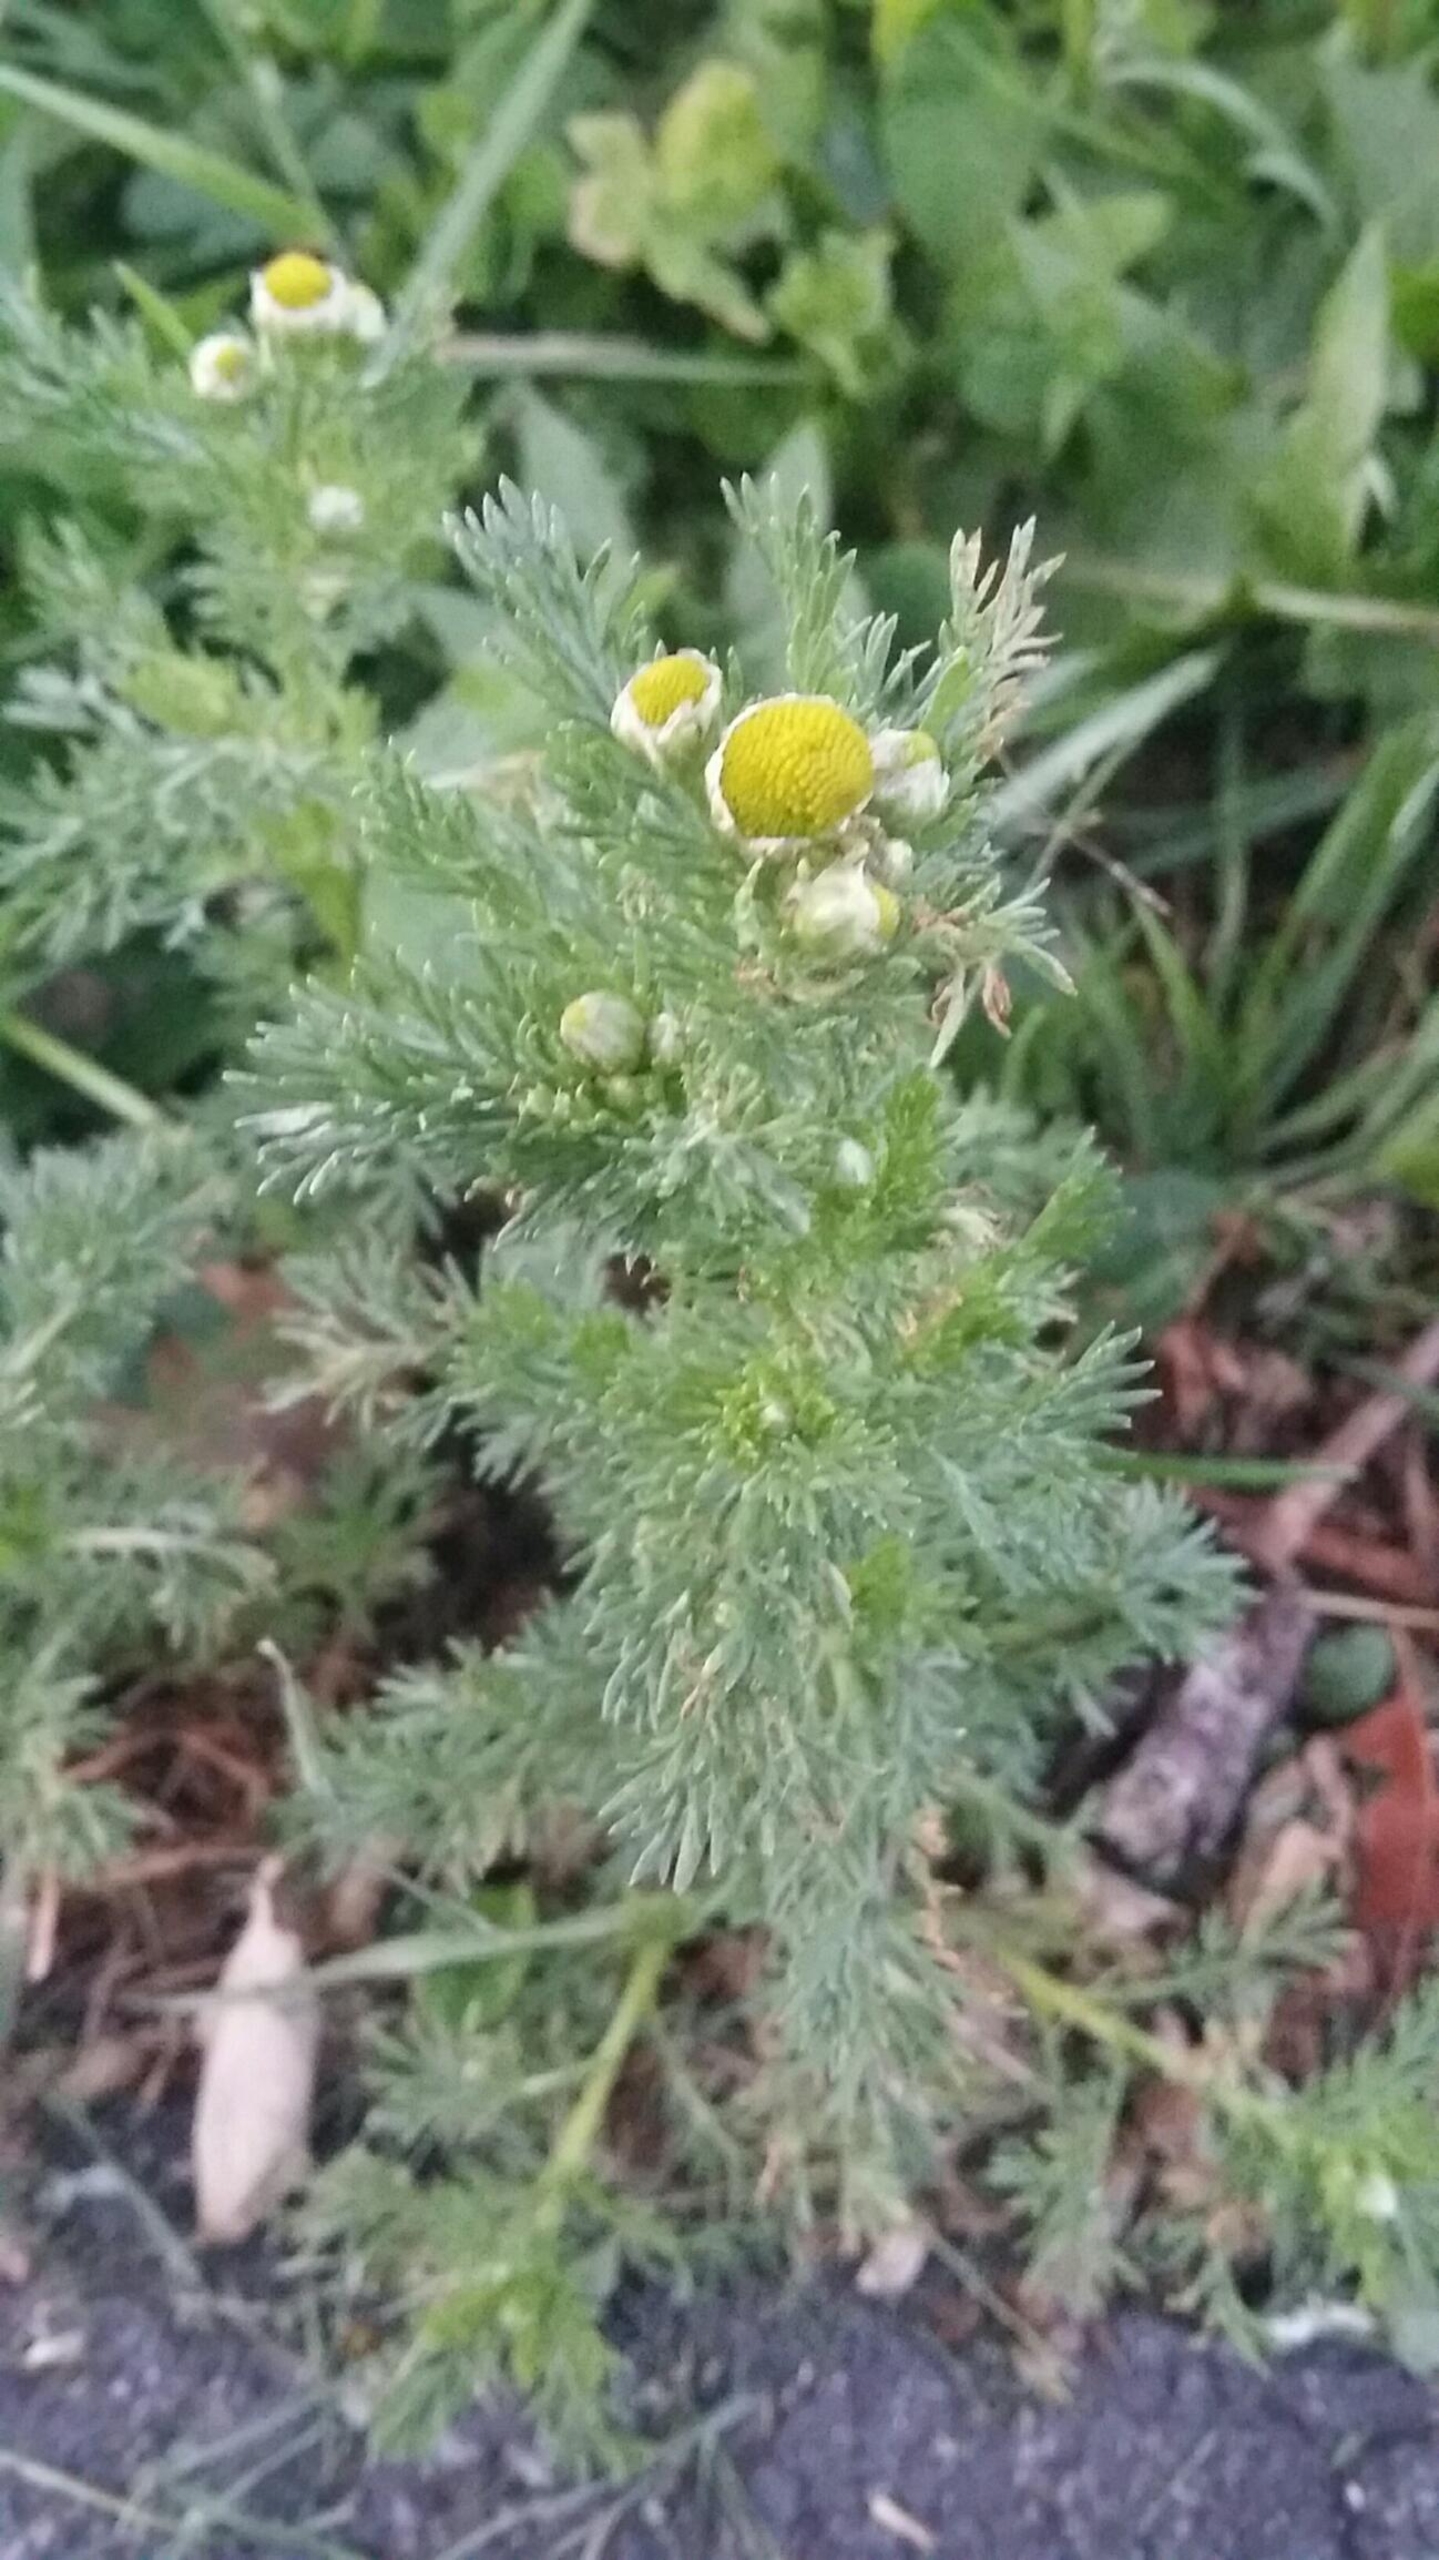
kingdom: Plantae
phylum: Tracheophyta
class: Magnoliopsida
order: Asterales
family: Asteraceae
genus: Matricaria
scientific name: Matricaria discoidea
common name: Skive-kamille
